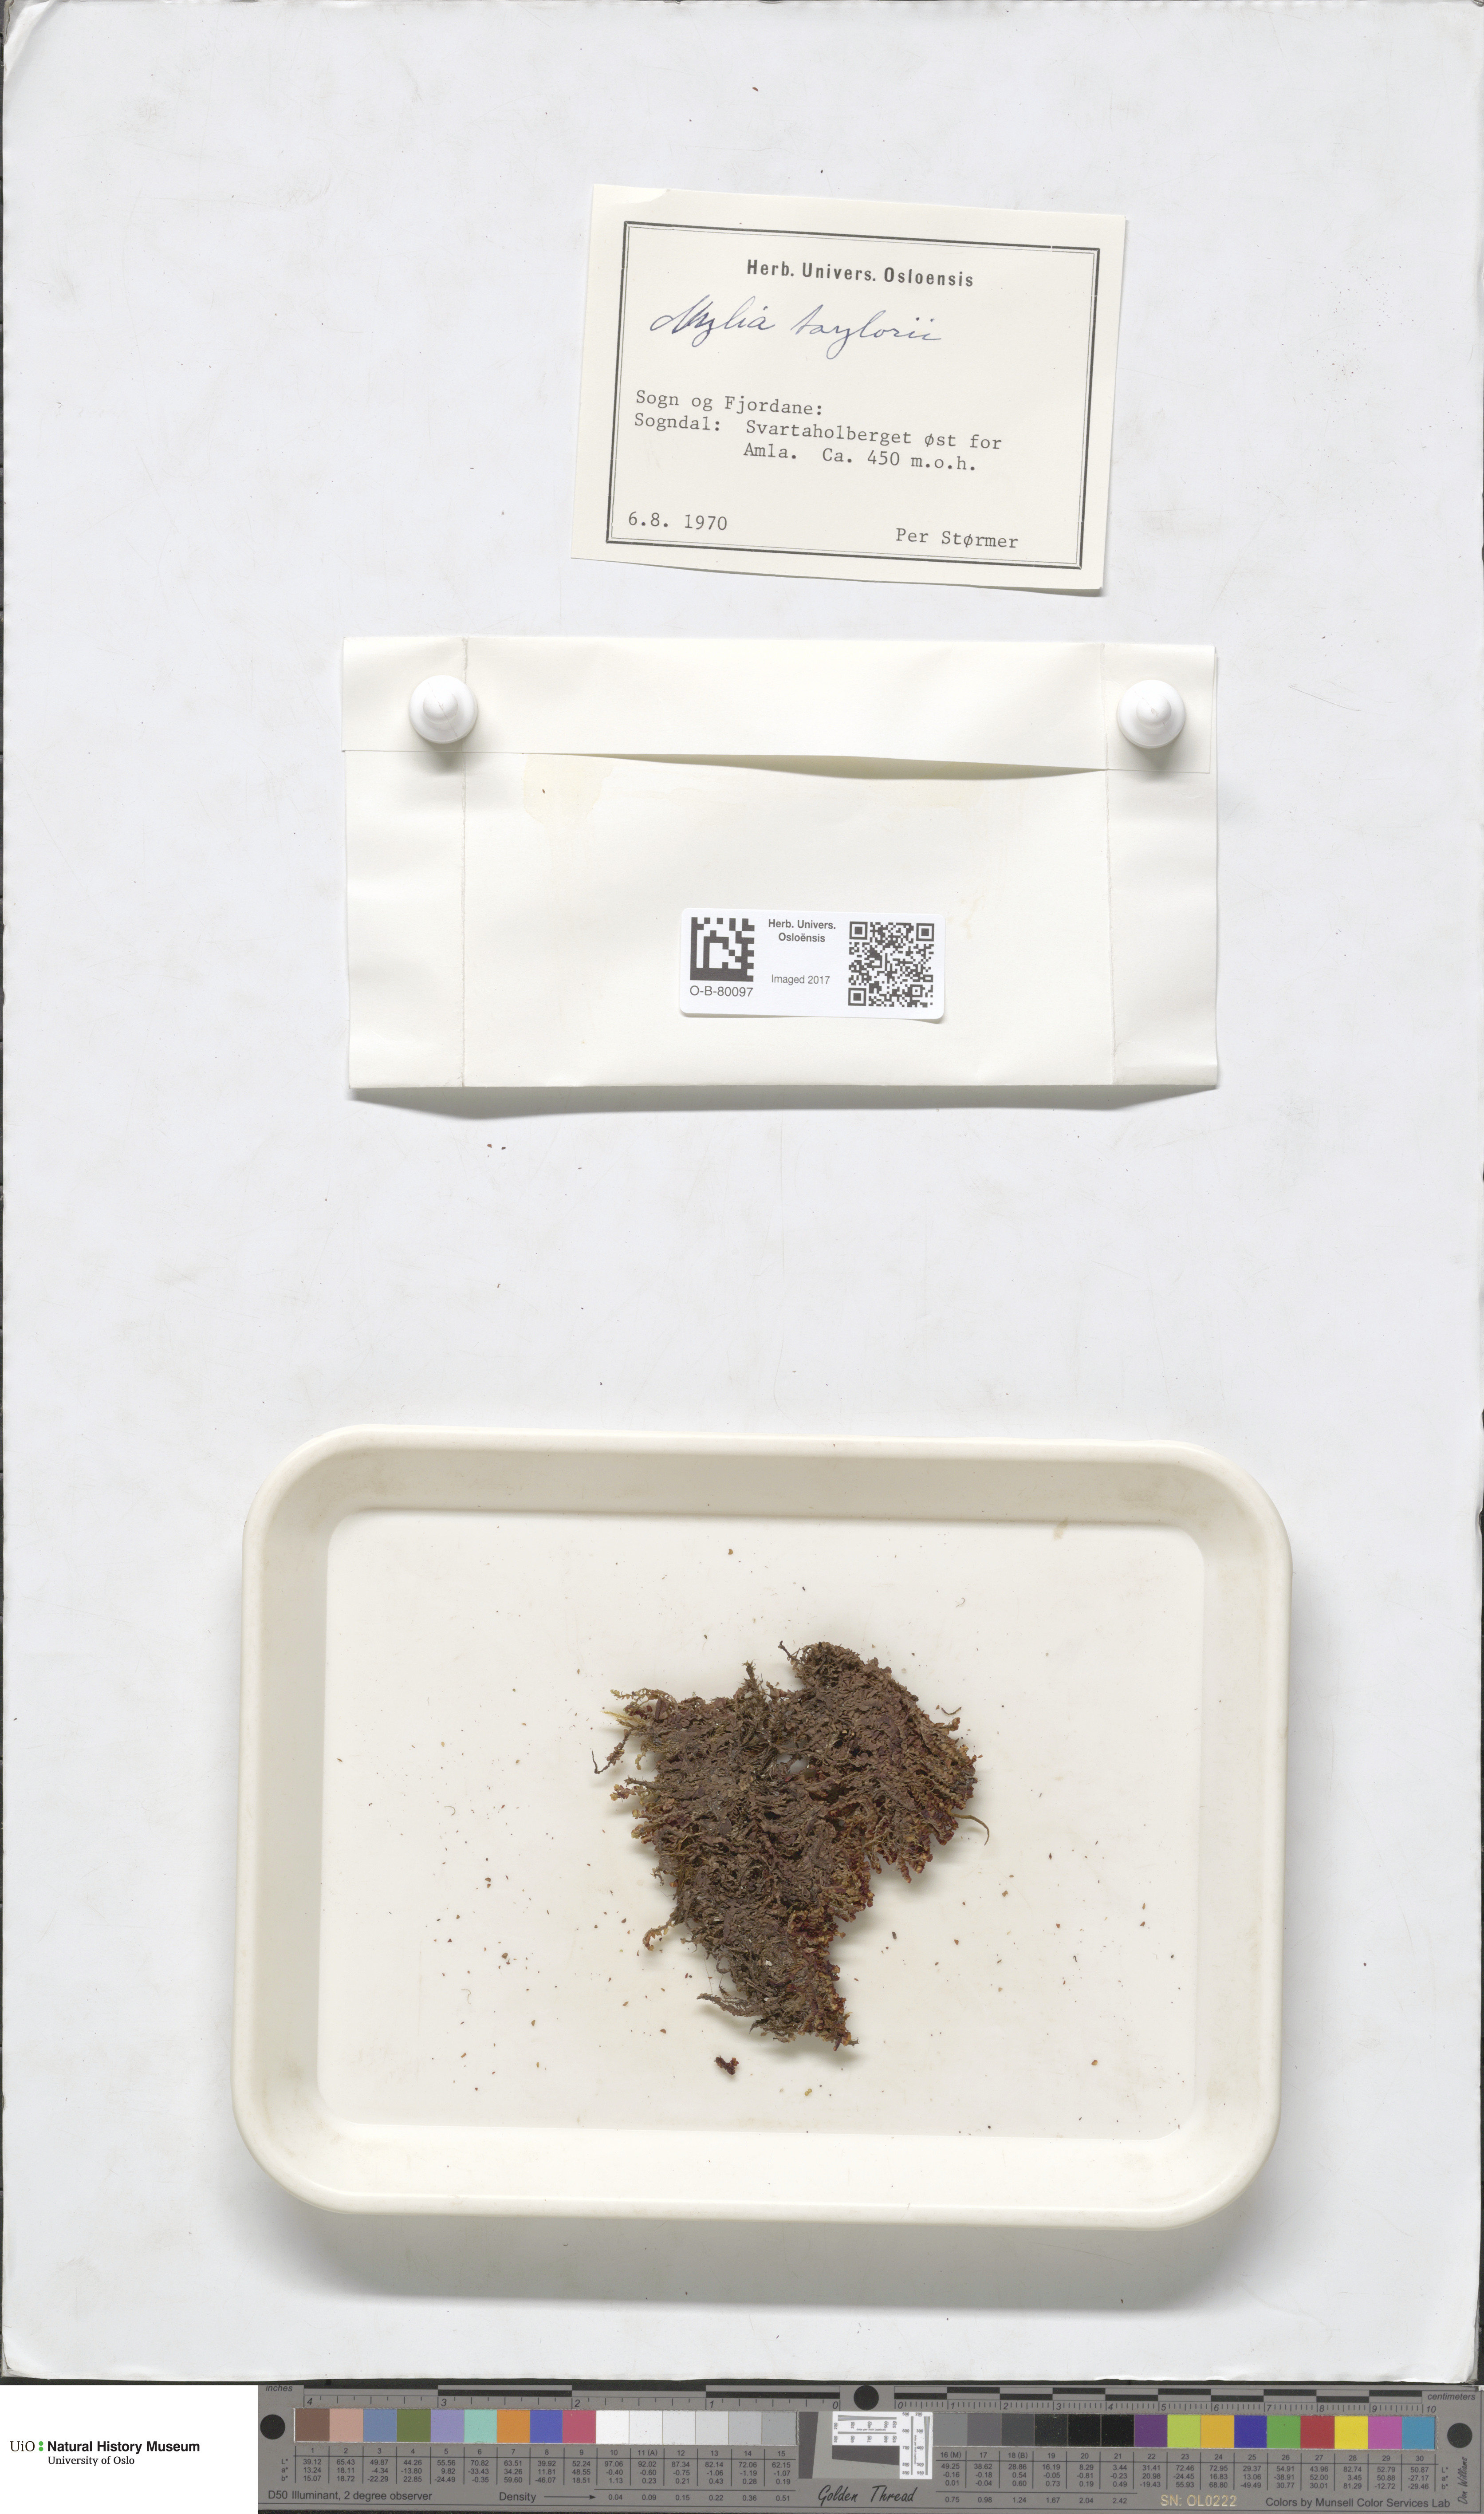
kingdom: Plantae
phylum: Marchantiophyta
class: Jungermanniopsida
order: Jungermanniales
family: Myliaceae
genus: Mylia
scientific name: Mylia taylorii
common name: Taylor s flapwort
